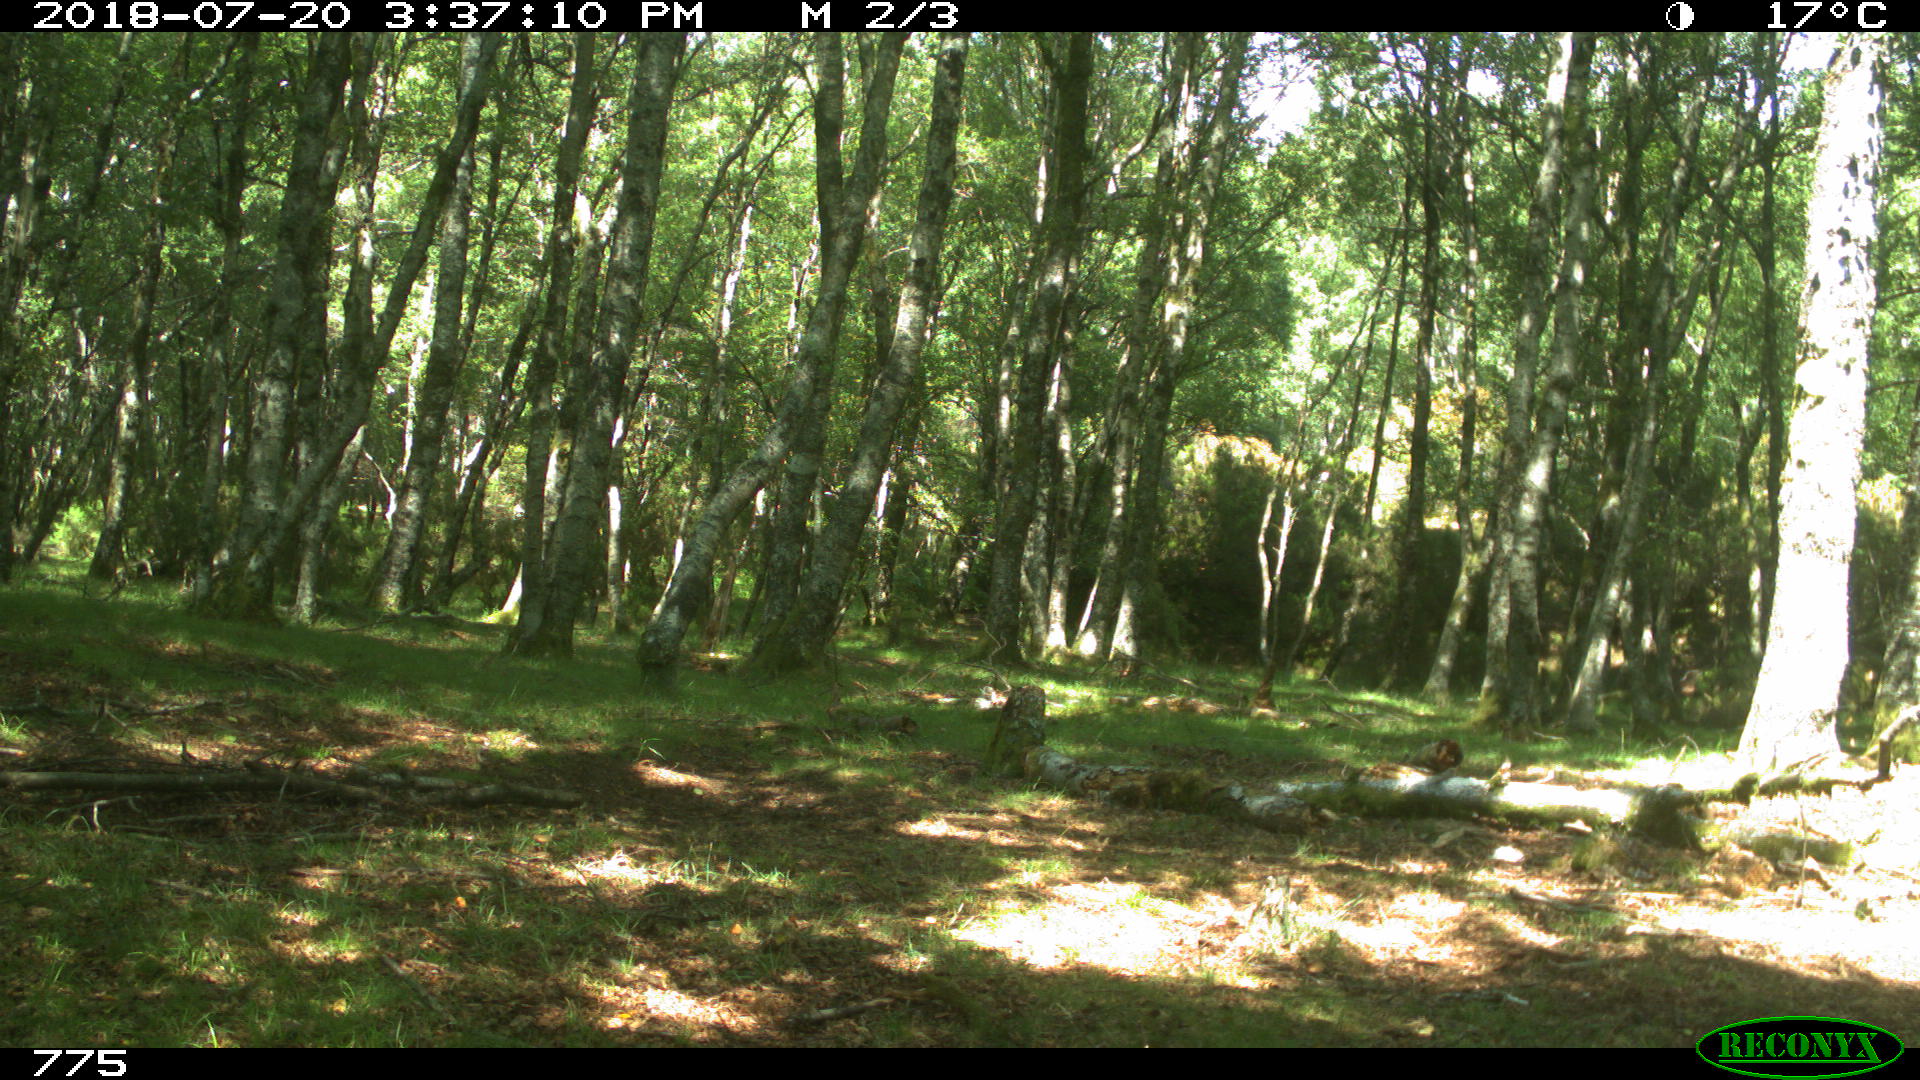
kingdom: Animalia
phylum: Chordata
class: Mammalia
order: Perissodactyla
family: Equidae
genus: Equus
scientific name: Equus caballus
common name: Horse
